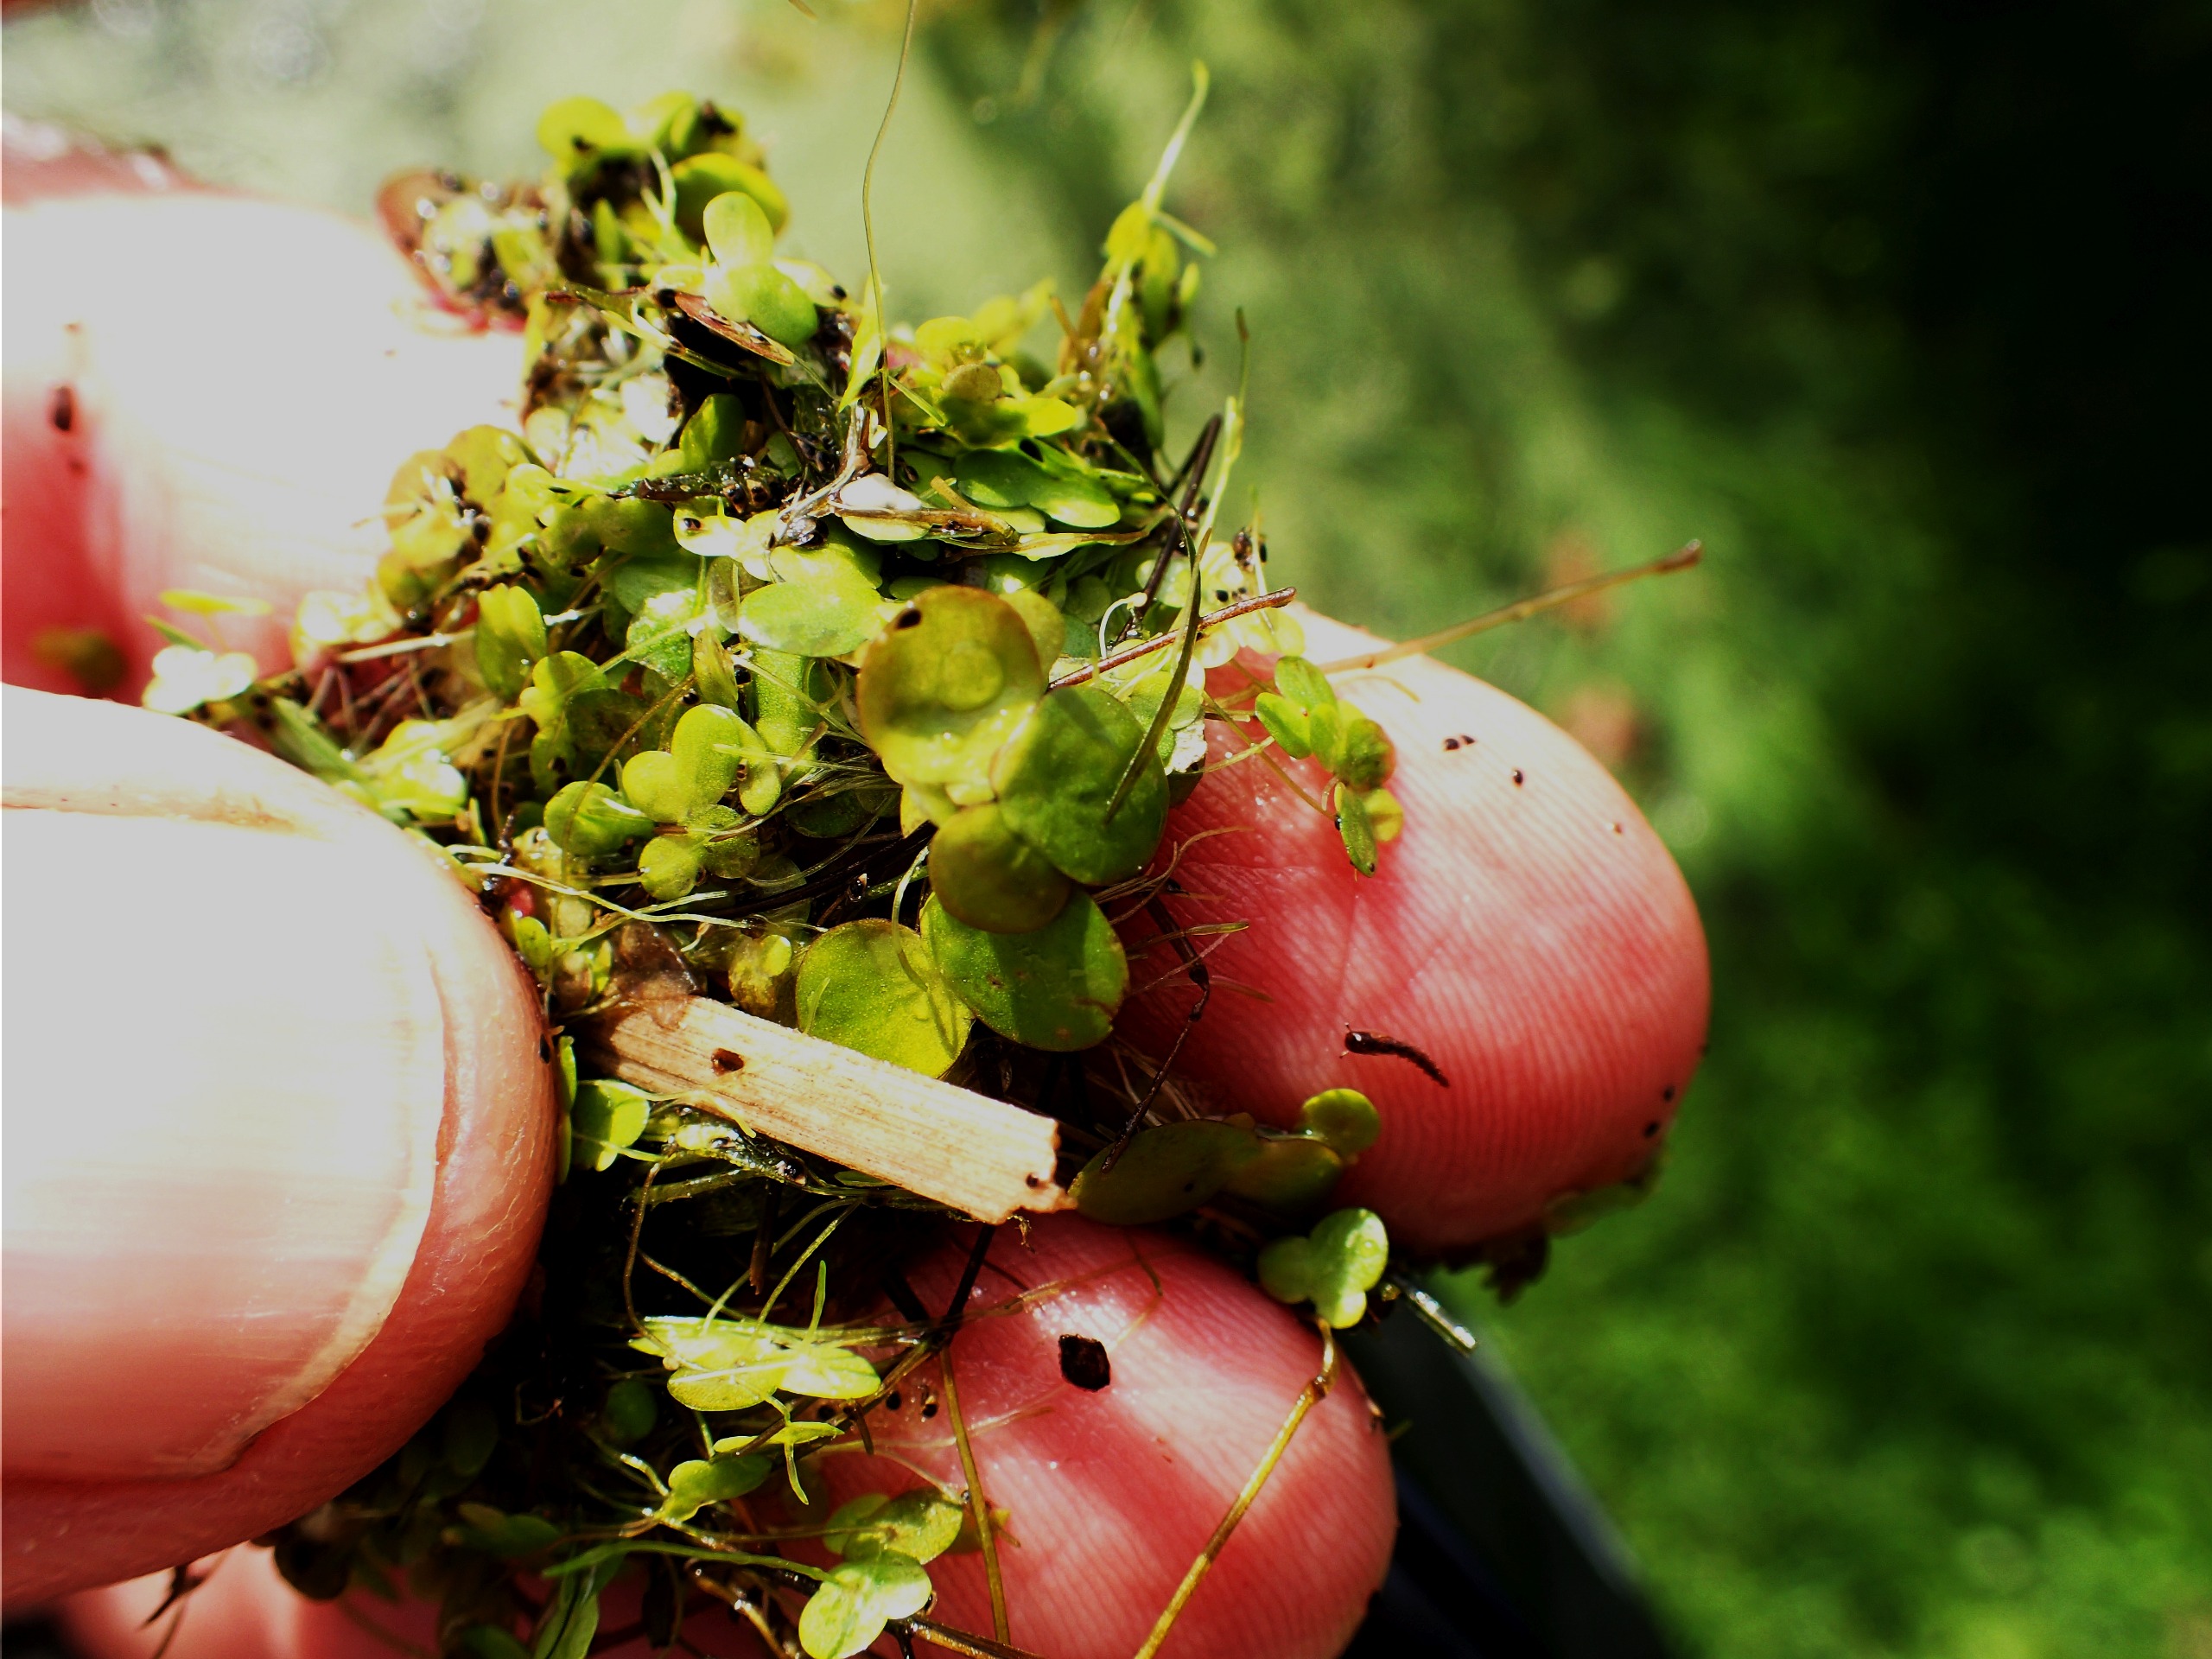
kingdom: Plantae
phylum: Tracheophyta
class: Liliopsida
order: Alismatales
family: Araceae
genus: Spirodela
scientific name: Spirodela polyrhiza
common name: Stor andemad
